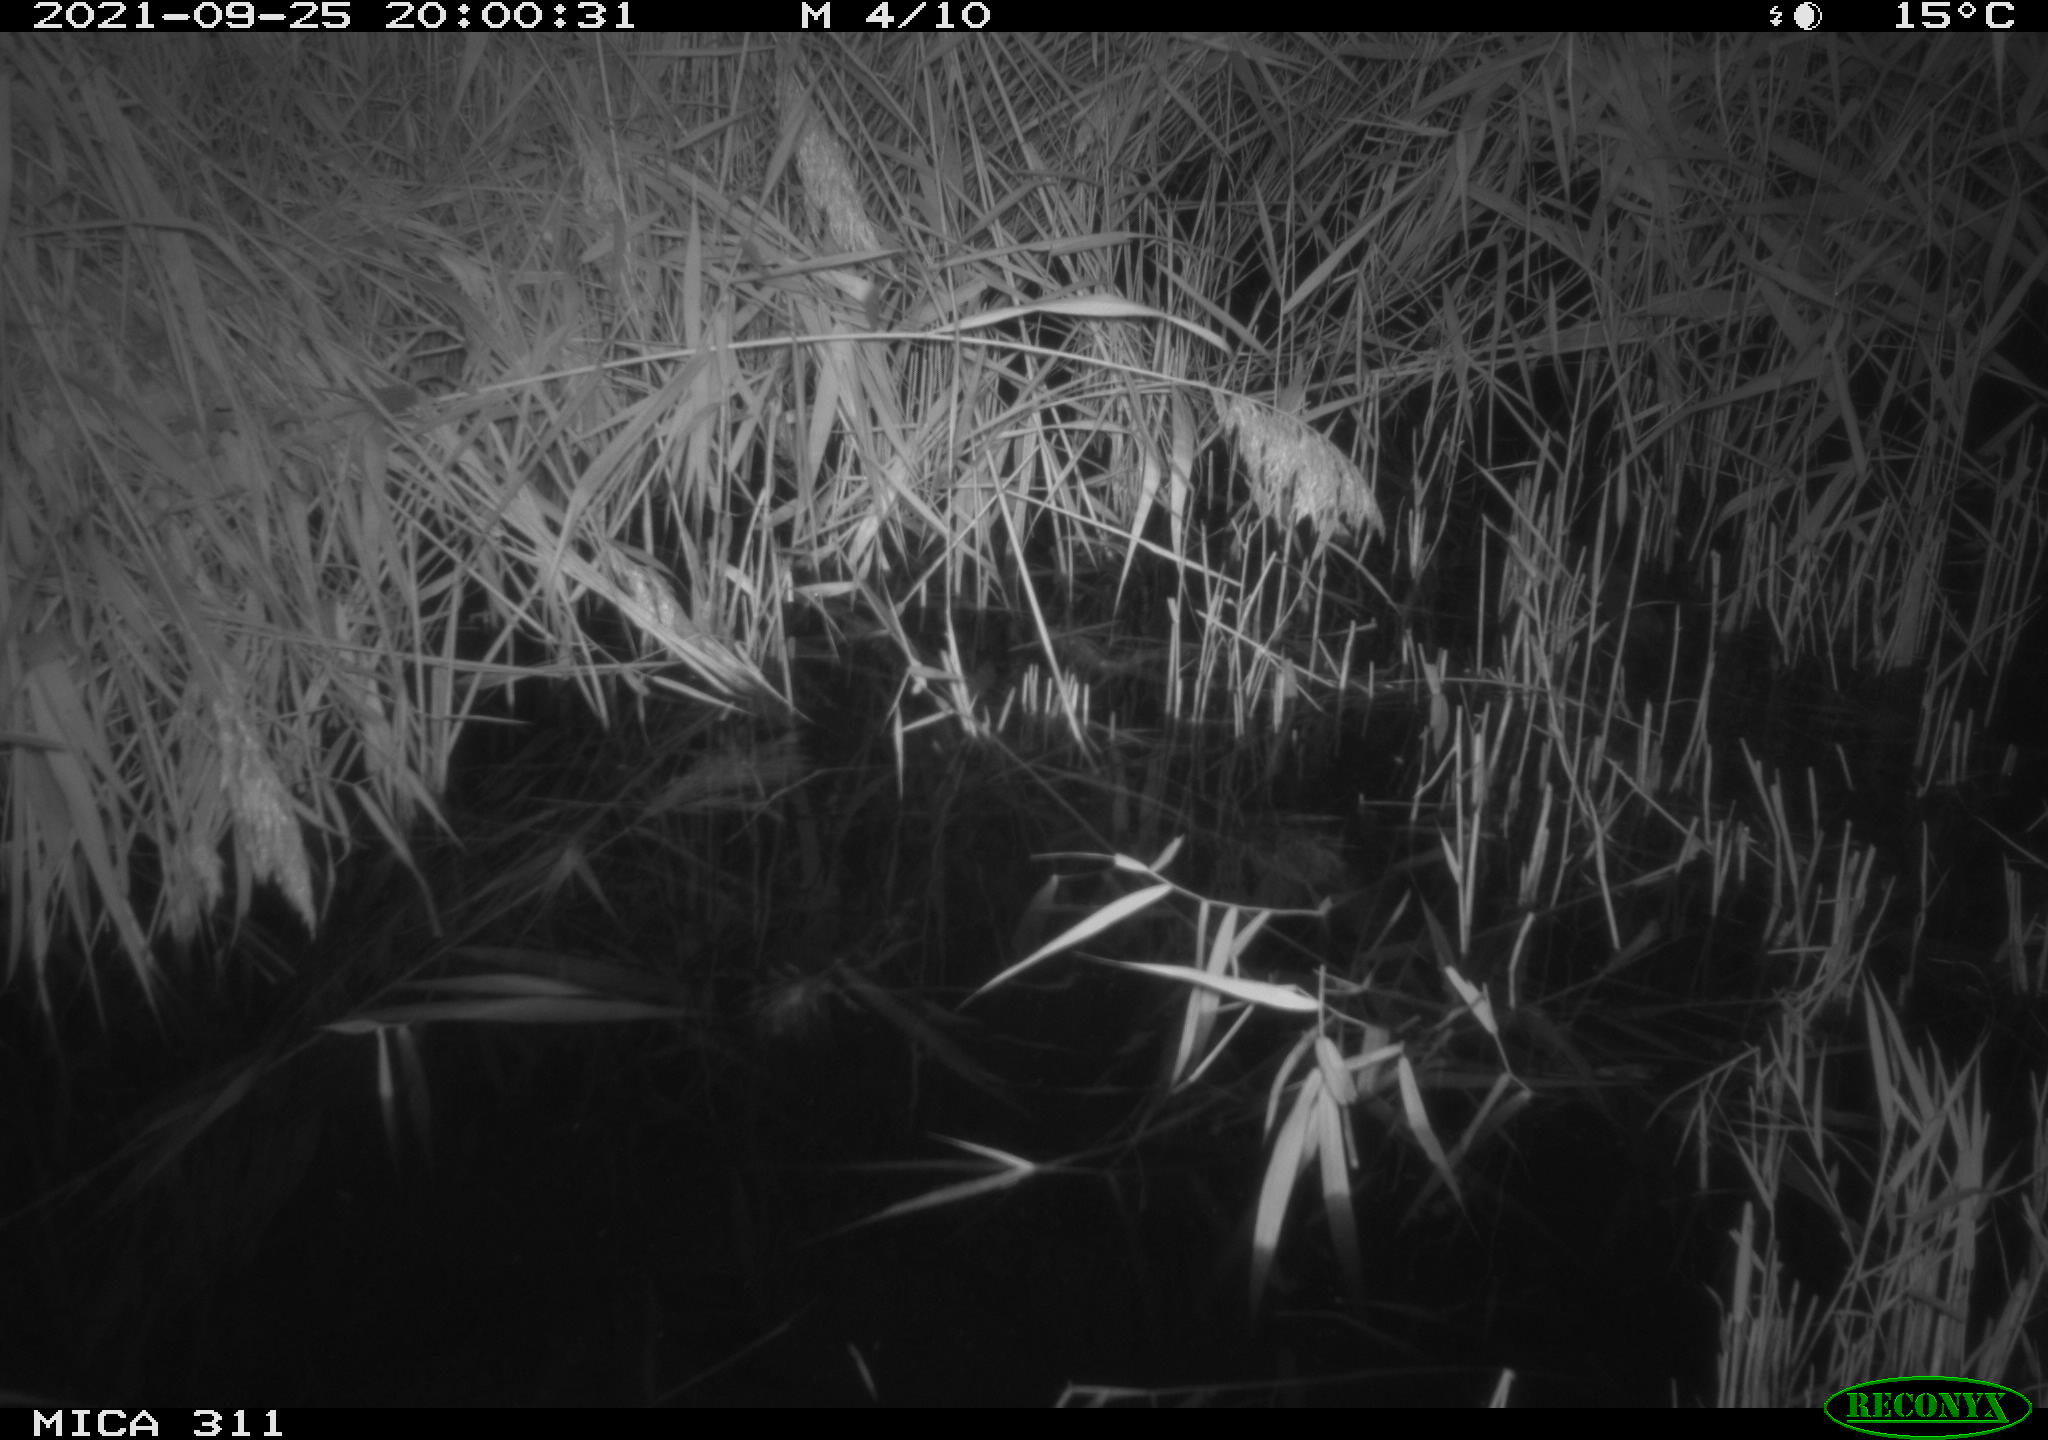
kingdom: Animalia
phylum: Chordata
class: Mammalia
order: Rodentia
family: Muridae
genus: Rattus
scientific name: Rattus norvegicus
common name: Brown rat
